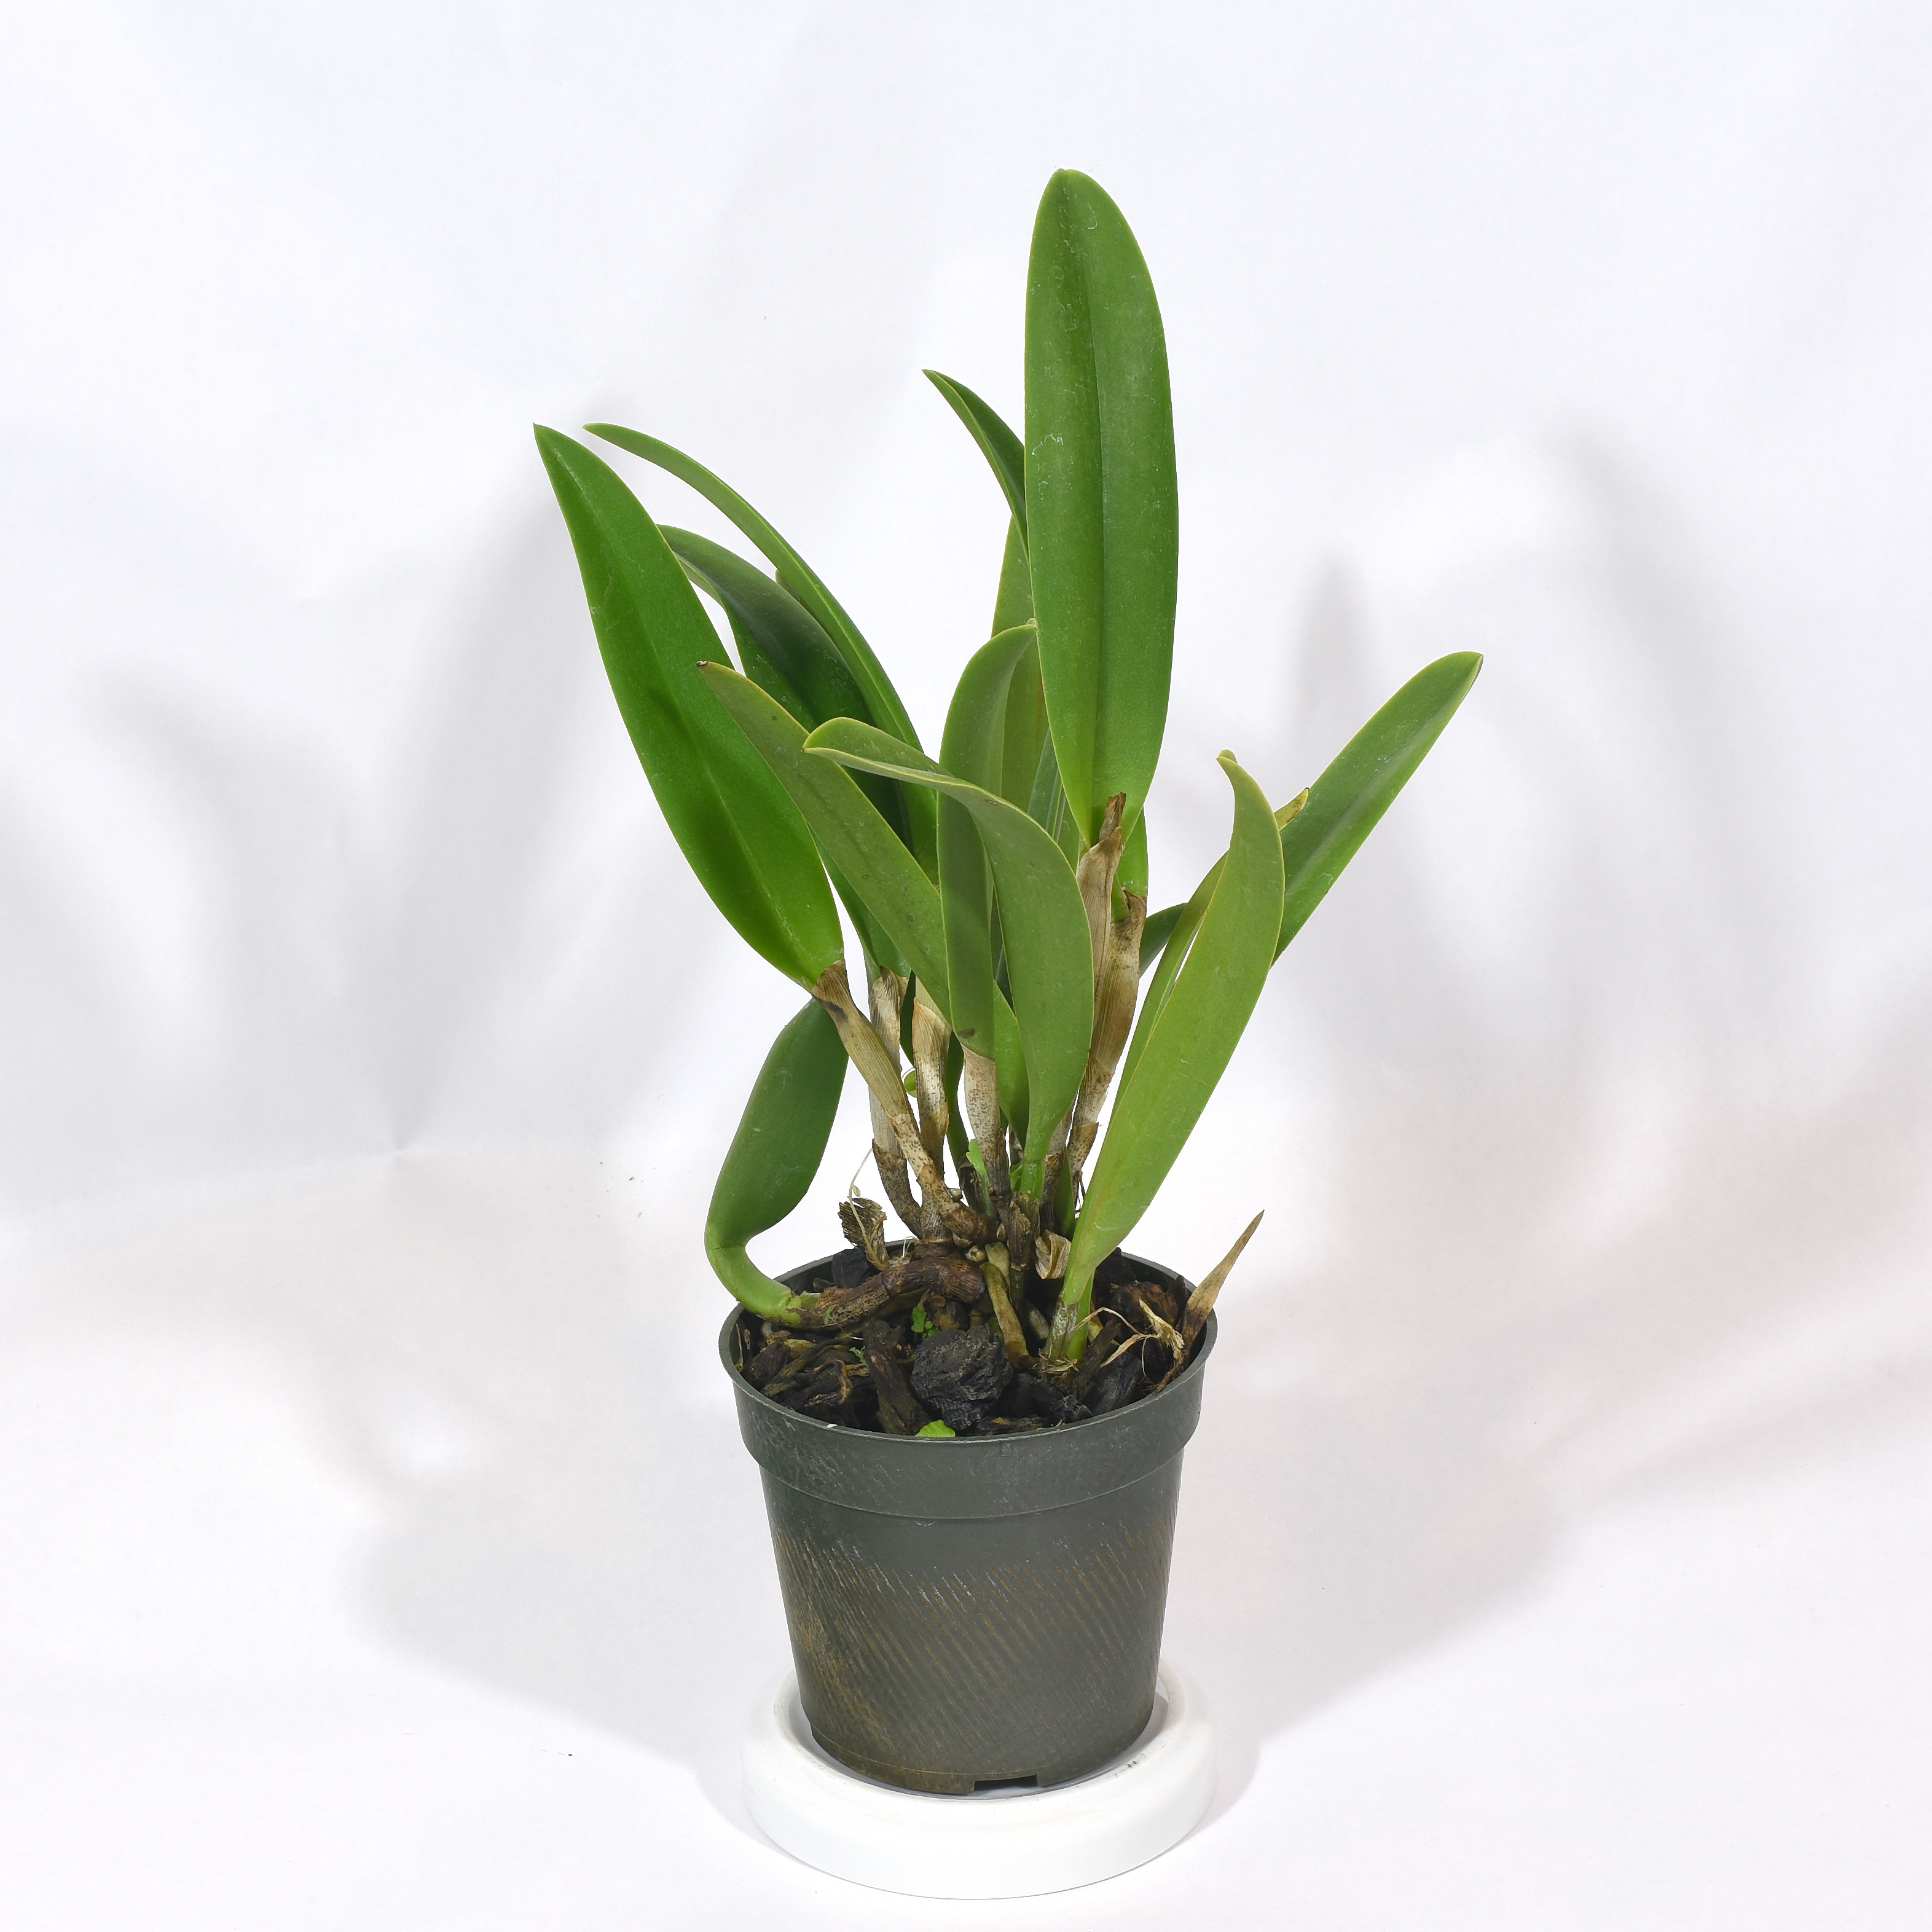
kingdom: Plantae
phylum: Tracheophyta
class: Liliopsida
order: Asparagales
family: Orchidaceae
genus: Brassavola
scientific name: Brassavola
